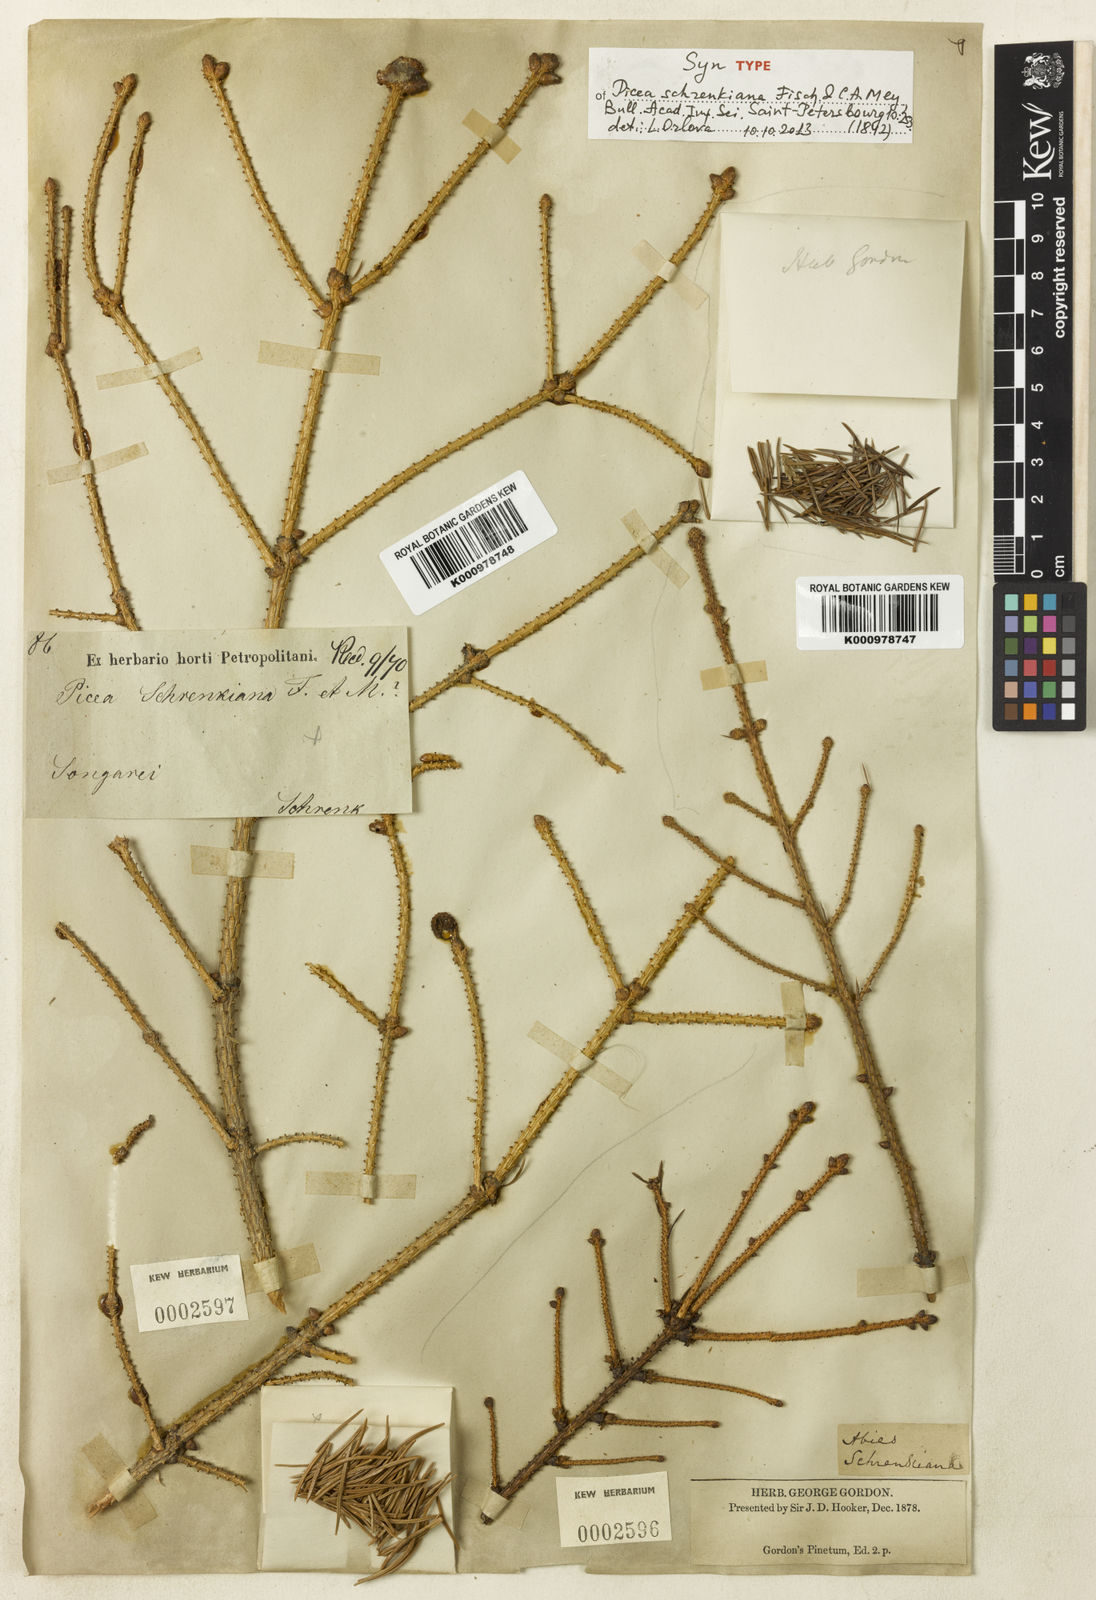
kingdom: Plantae
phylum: Tracheophyta
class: Pinopsida
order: Pinales
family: Pinaceae
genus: Picea
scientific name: Picea schrenkiana
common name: Asian spruce
